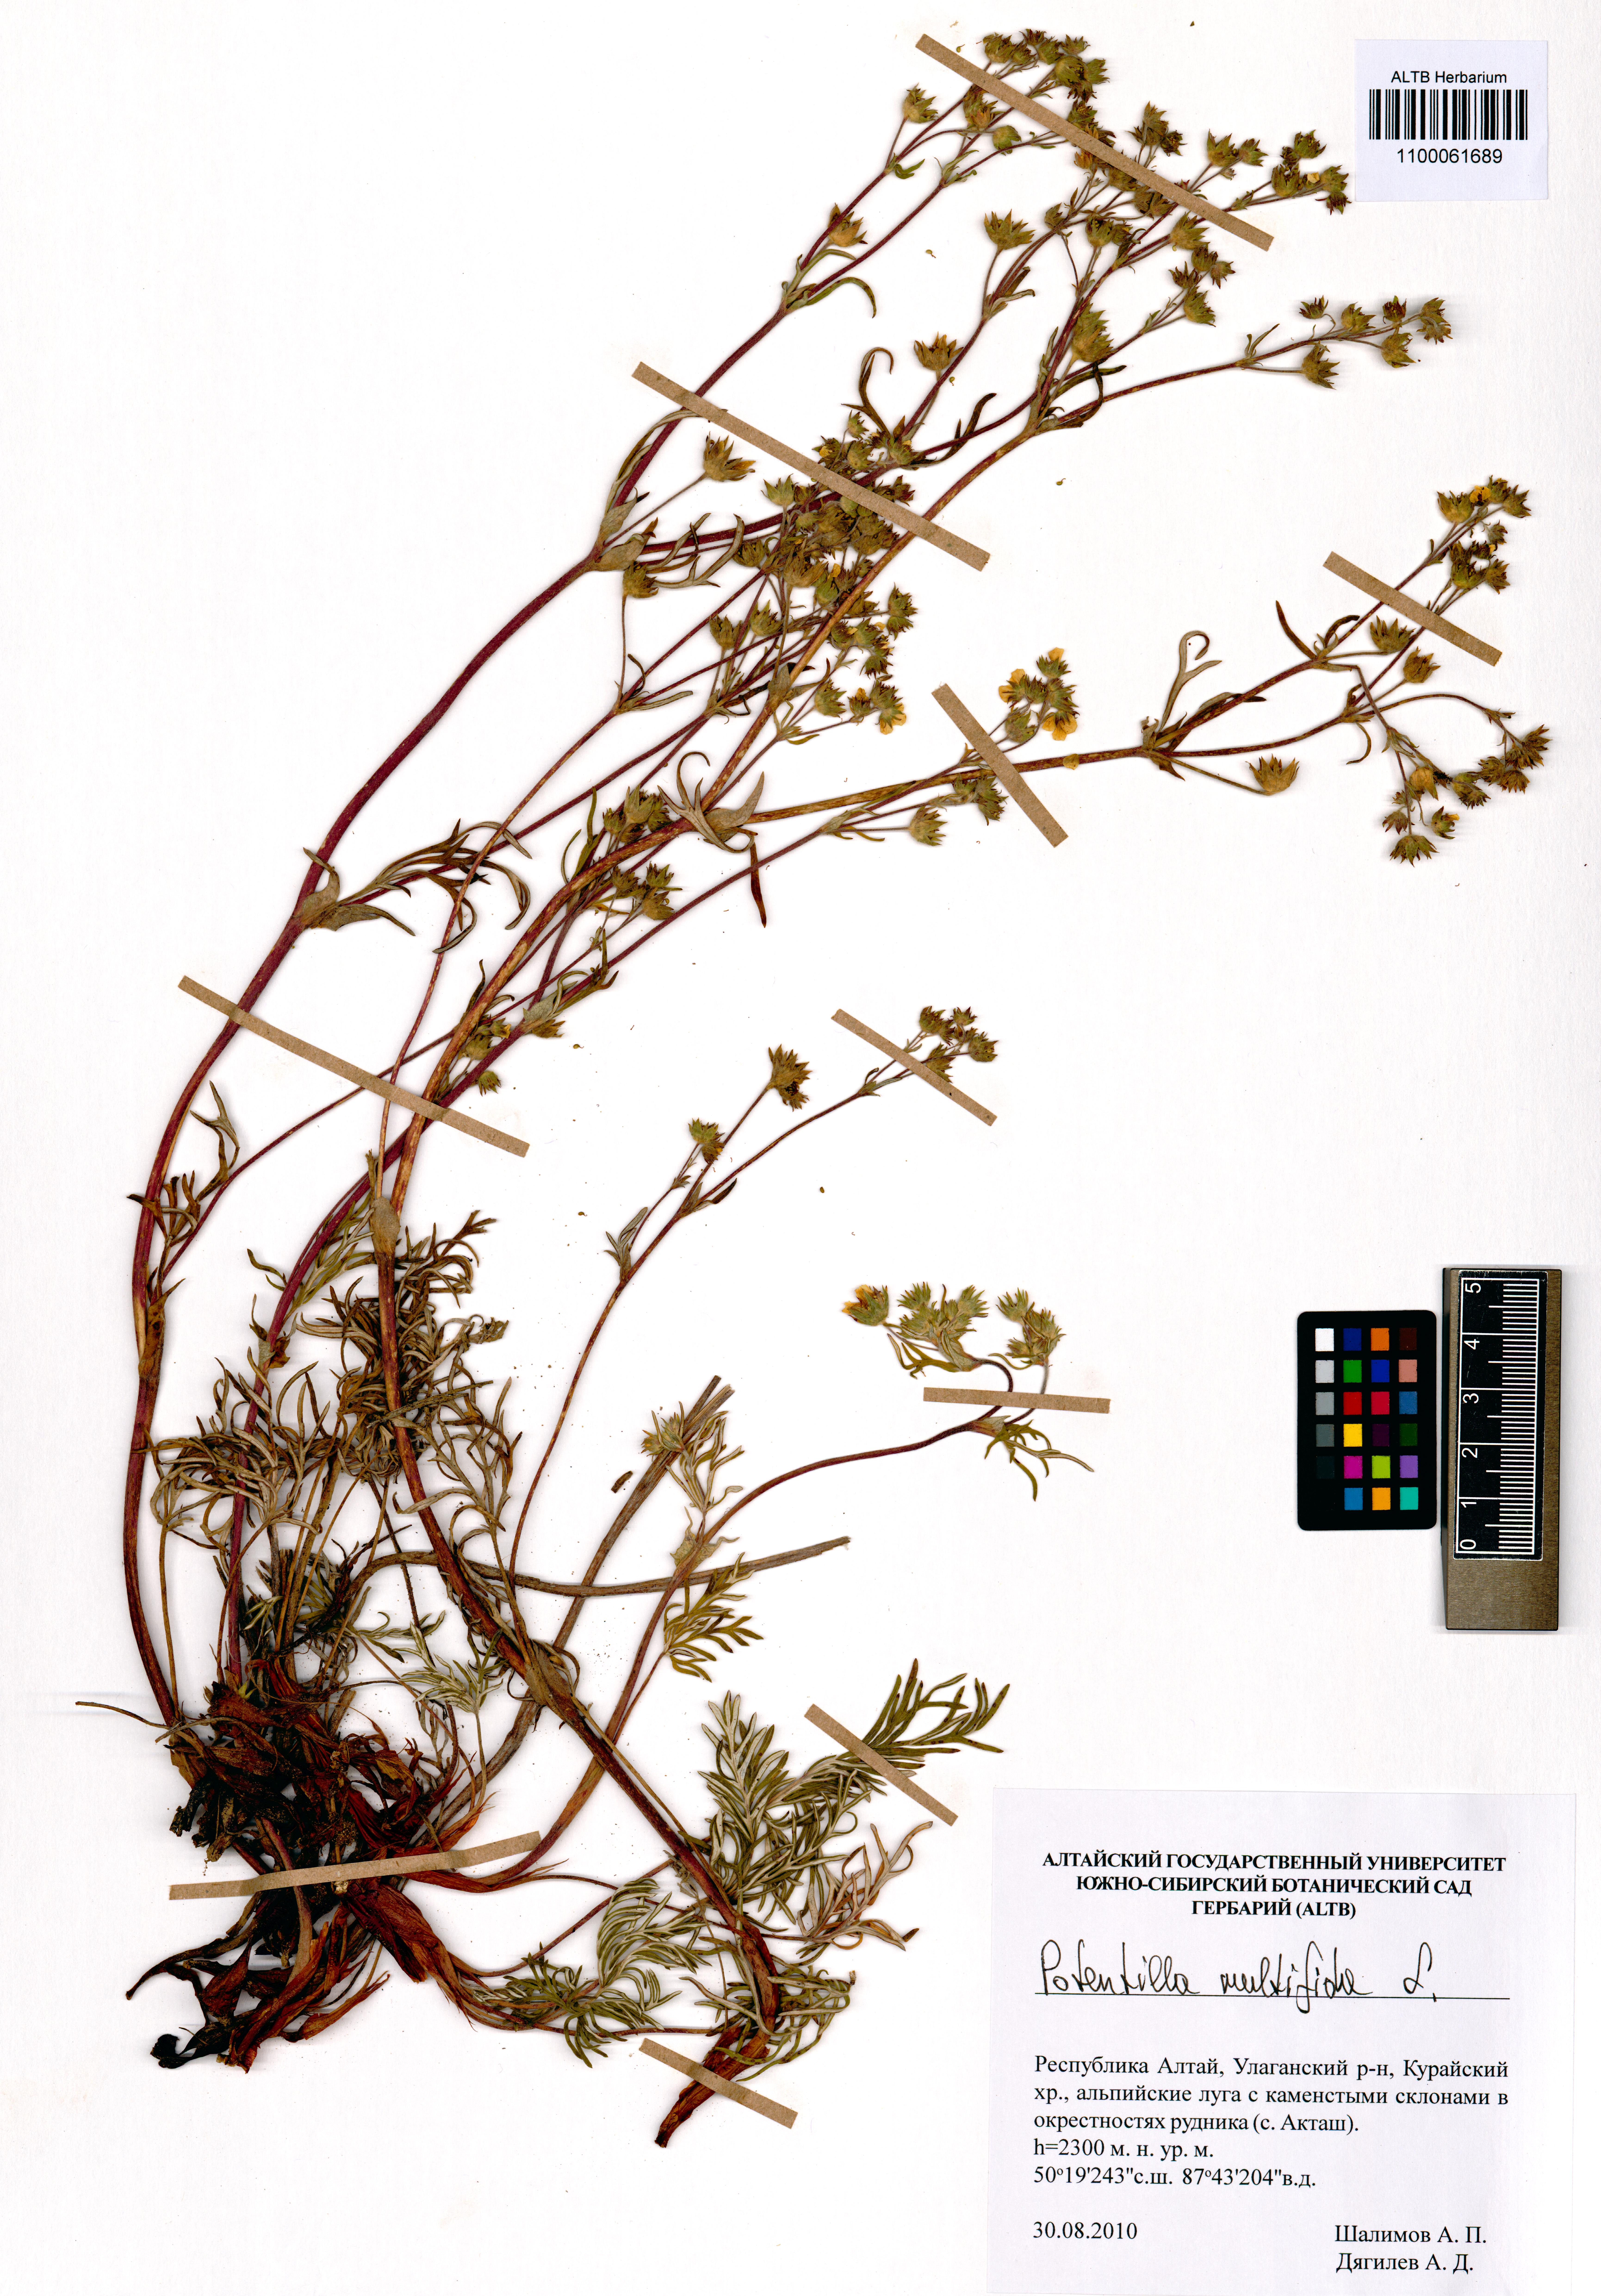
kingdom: Plantae
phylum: Tracheophyta
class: Magnoliopsida
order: Rosales
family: Rosaceae
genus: Potentilla
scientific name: Potentilla multifida
